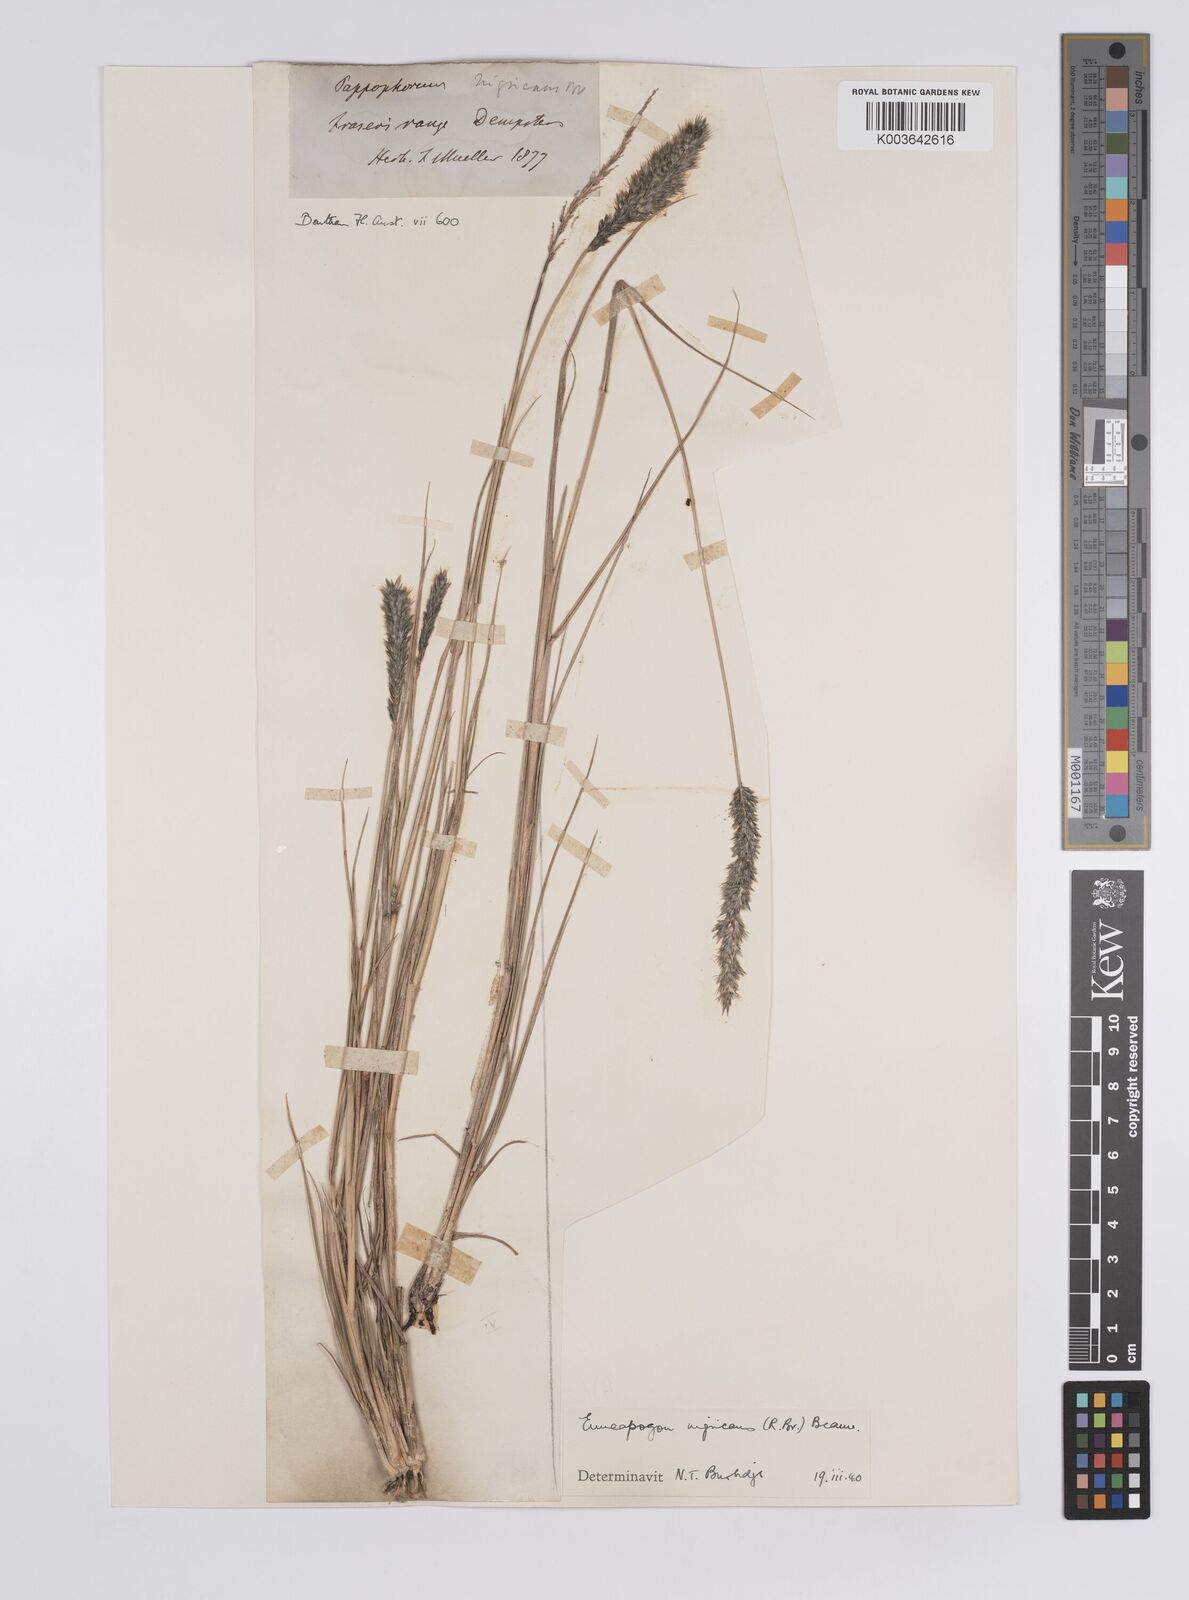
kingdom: Plantae
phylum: Tracheophyta
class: Liliopsida
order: Poales
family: Poaceae
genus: Enneapogon
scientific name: Enneapogon nigricans
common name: Pappus grass
